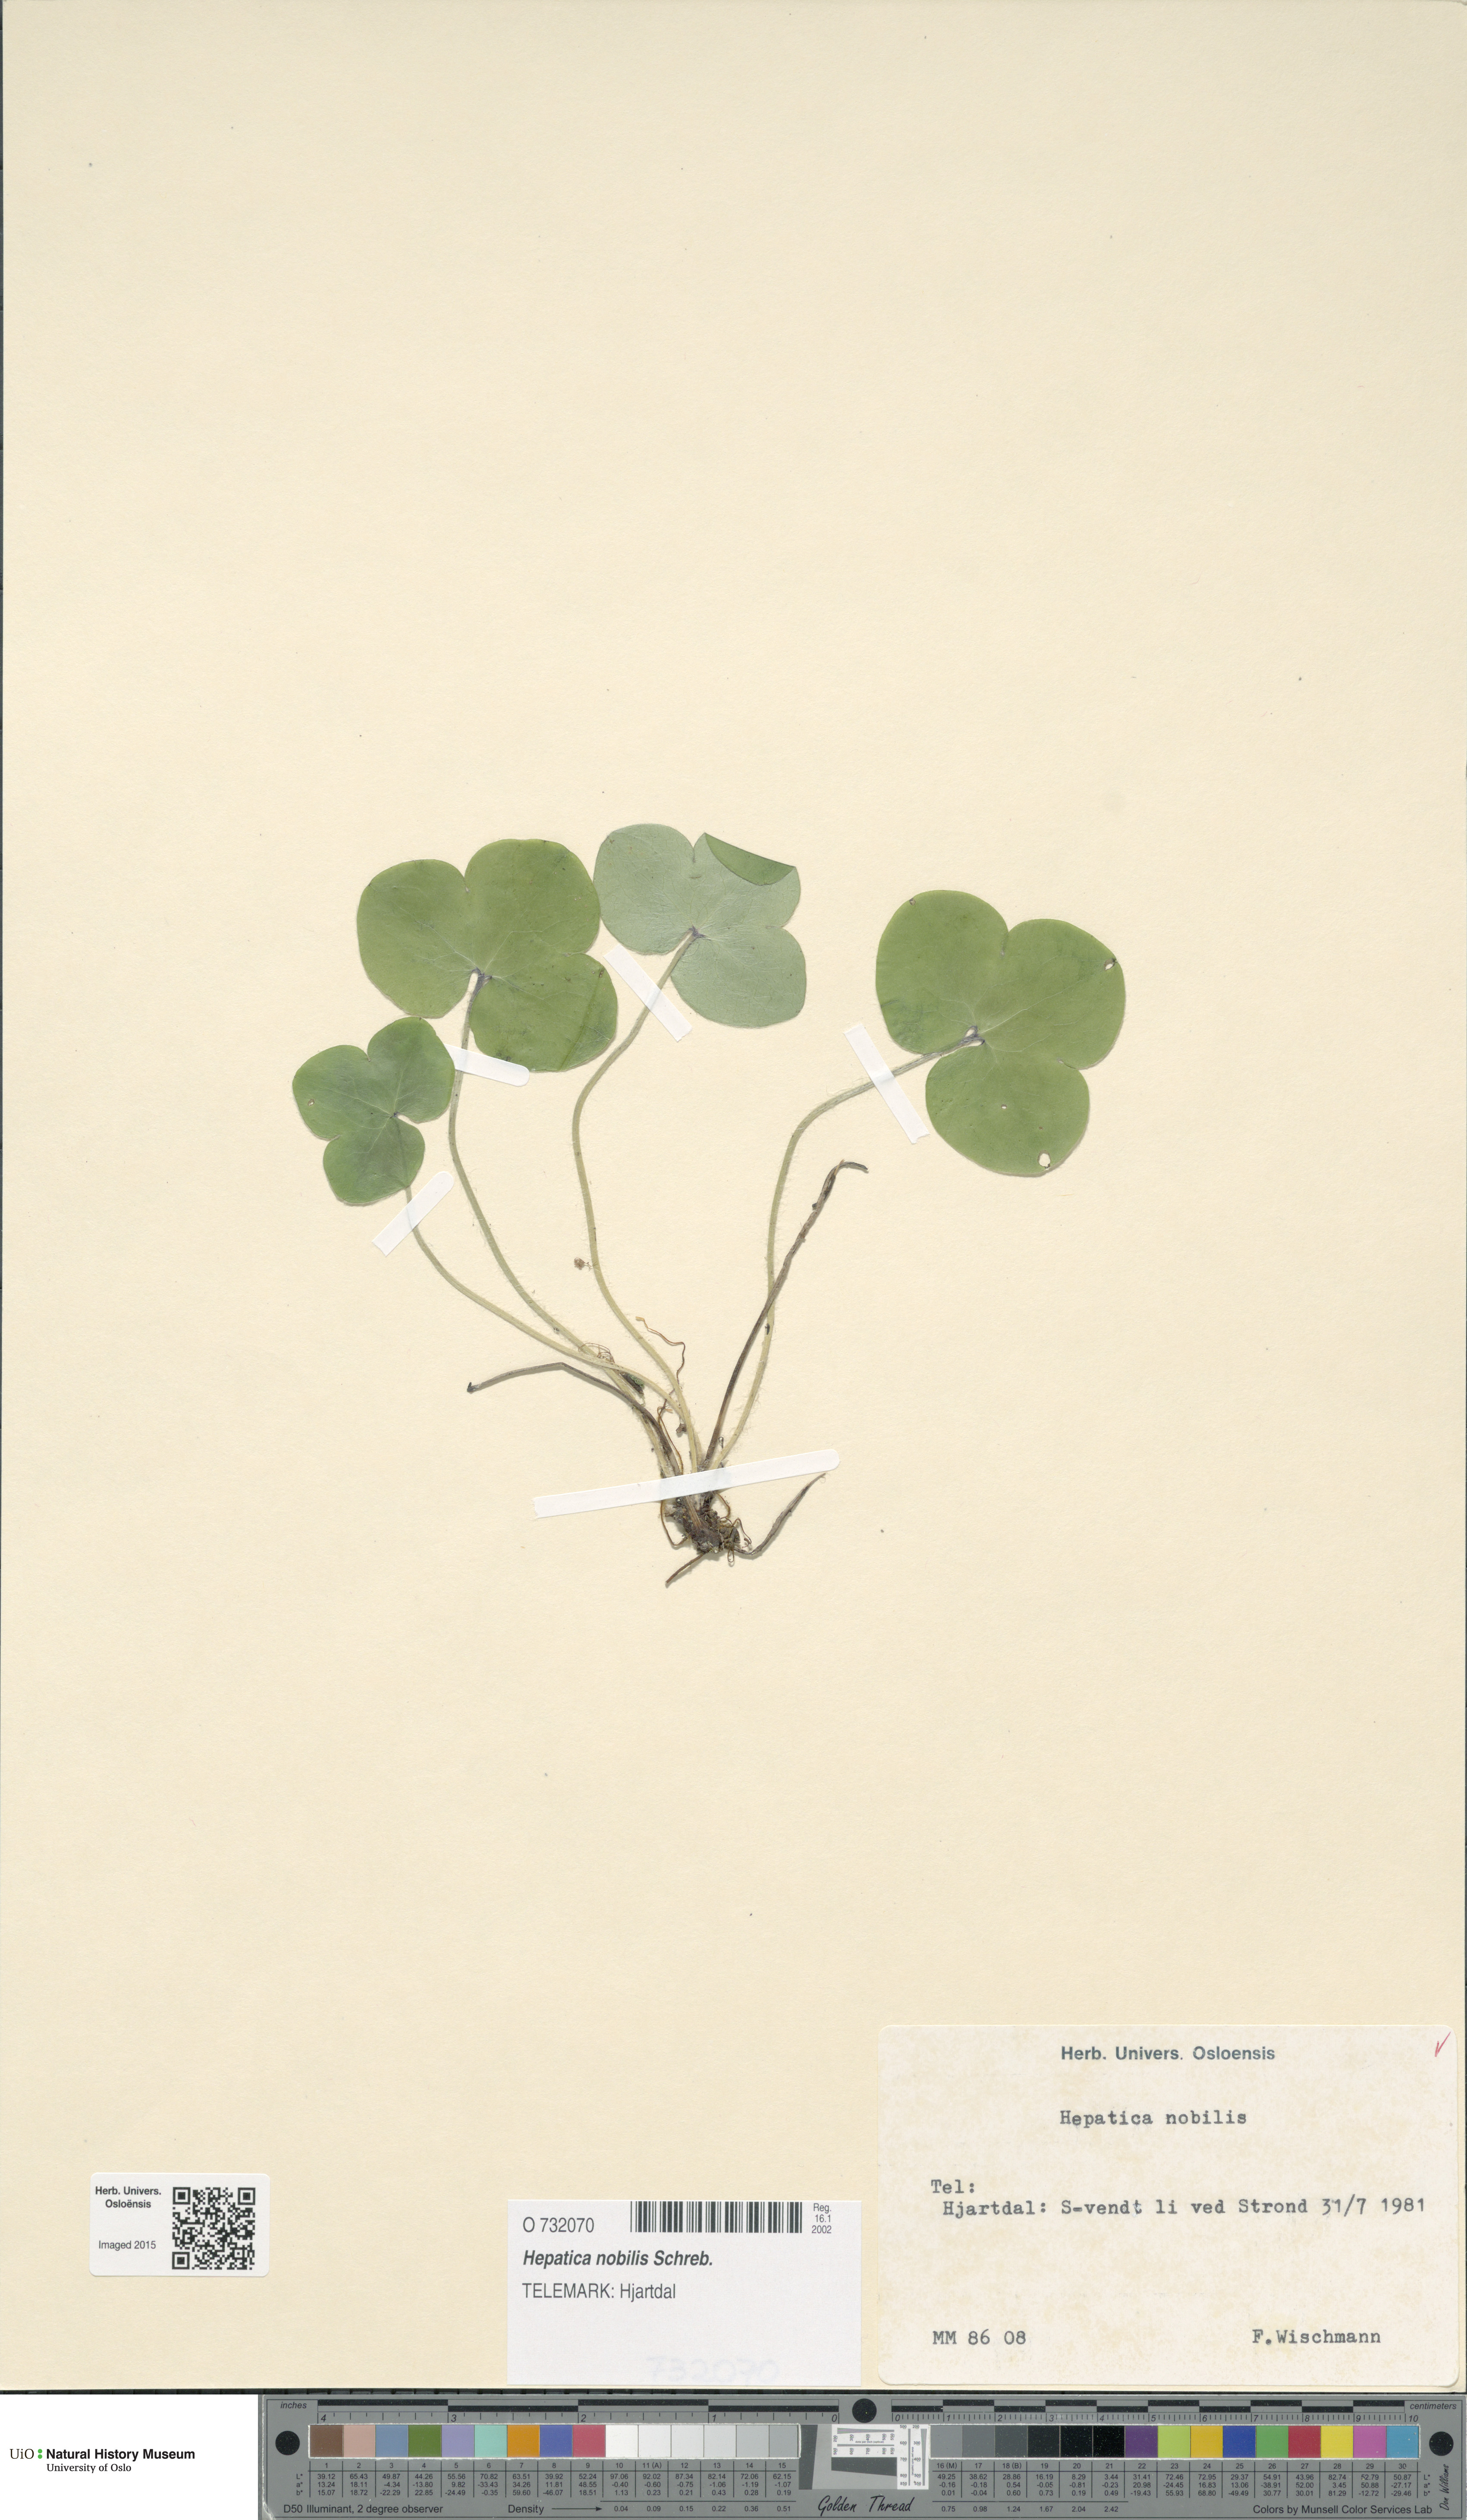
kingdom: Plantae
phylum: Tracheophyta
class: Magnoliopsida
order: Ranunculales
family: Ranunculaceae
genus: Hepatica
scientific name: Hepatica nobilis
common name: Liverleaf
